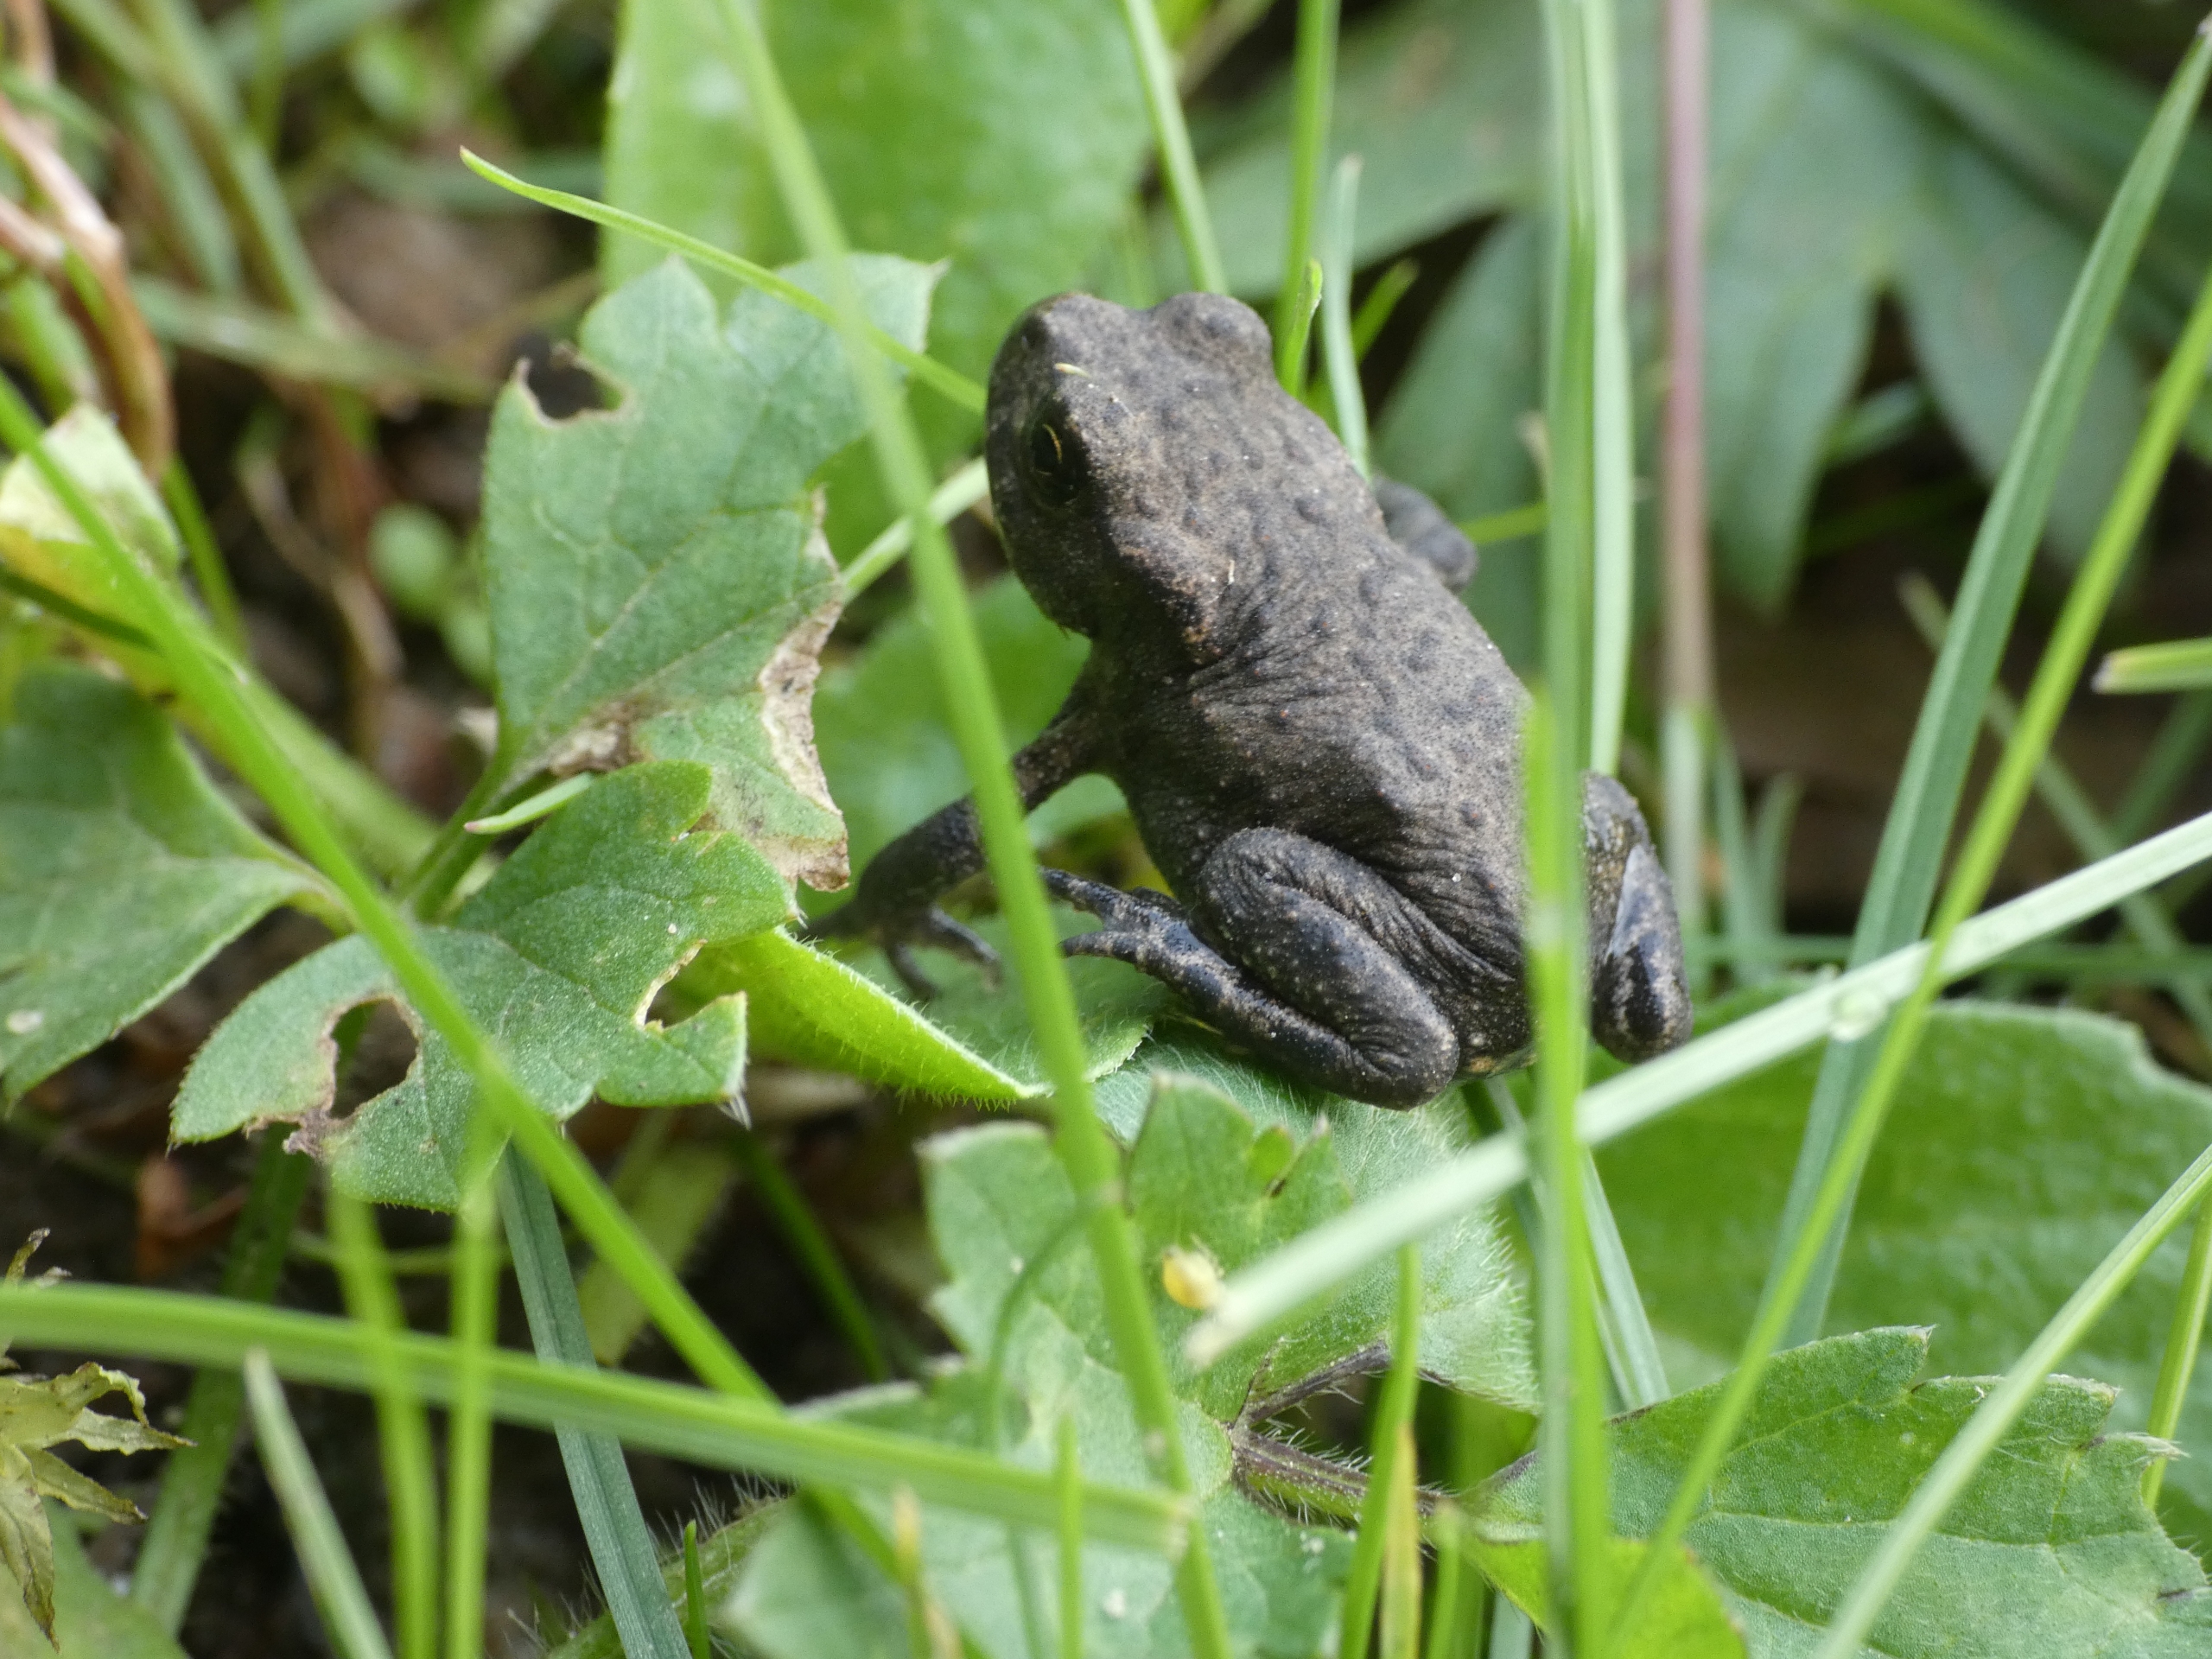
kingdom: Animalia
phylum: Chordata
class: Amphibia
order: Anura
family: Bufonidae
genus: Bufo
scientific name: Bufo bufo
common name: Skrubtudse
